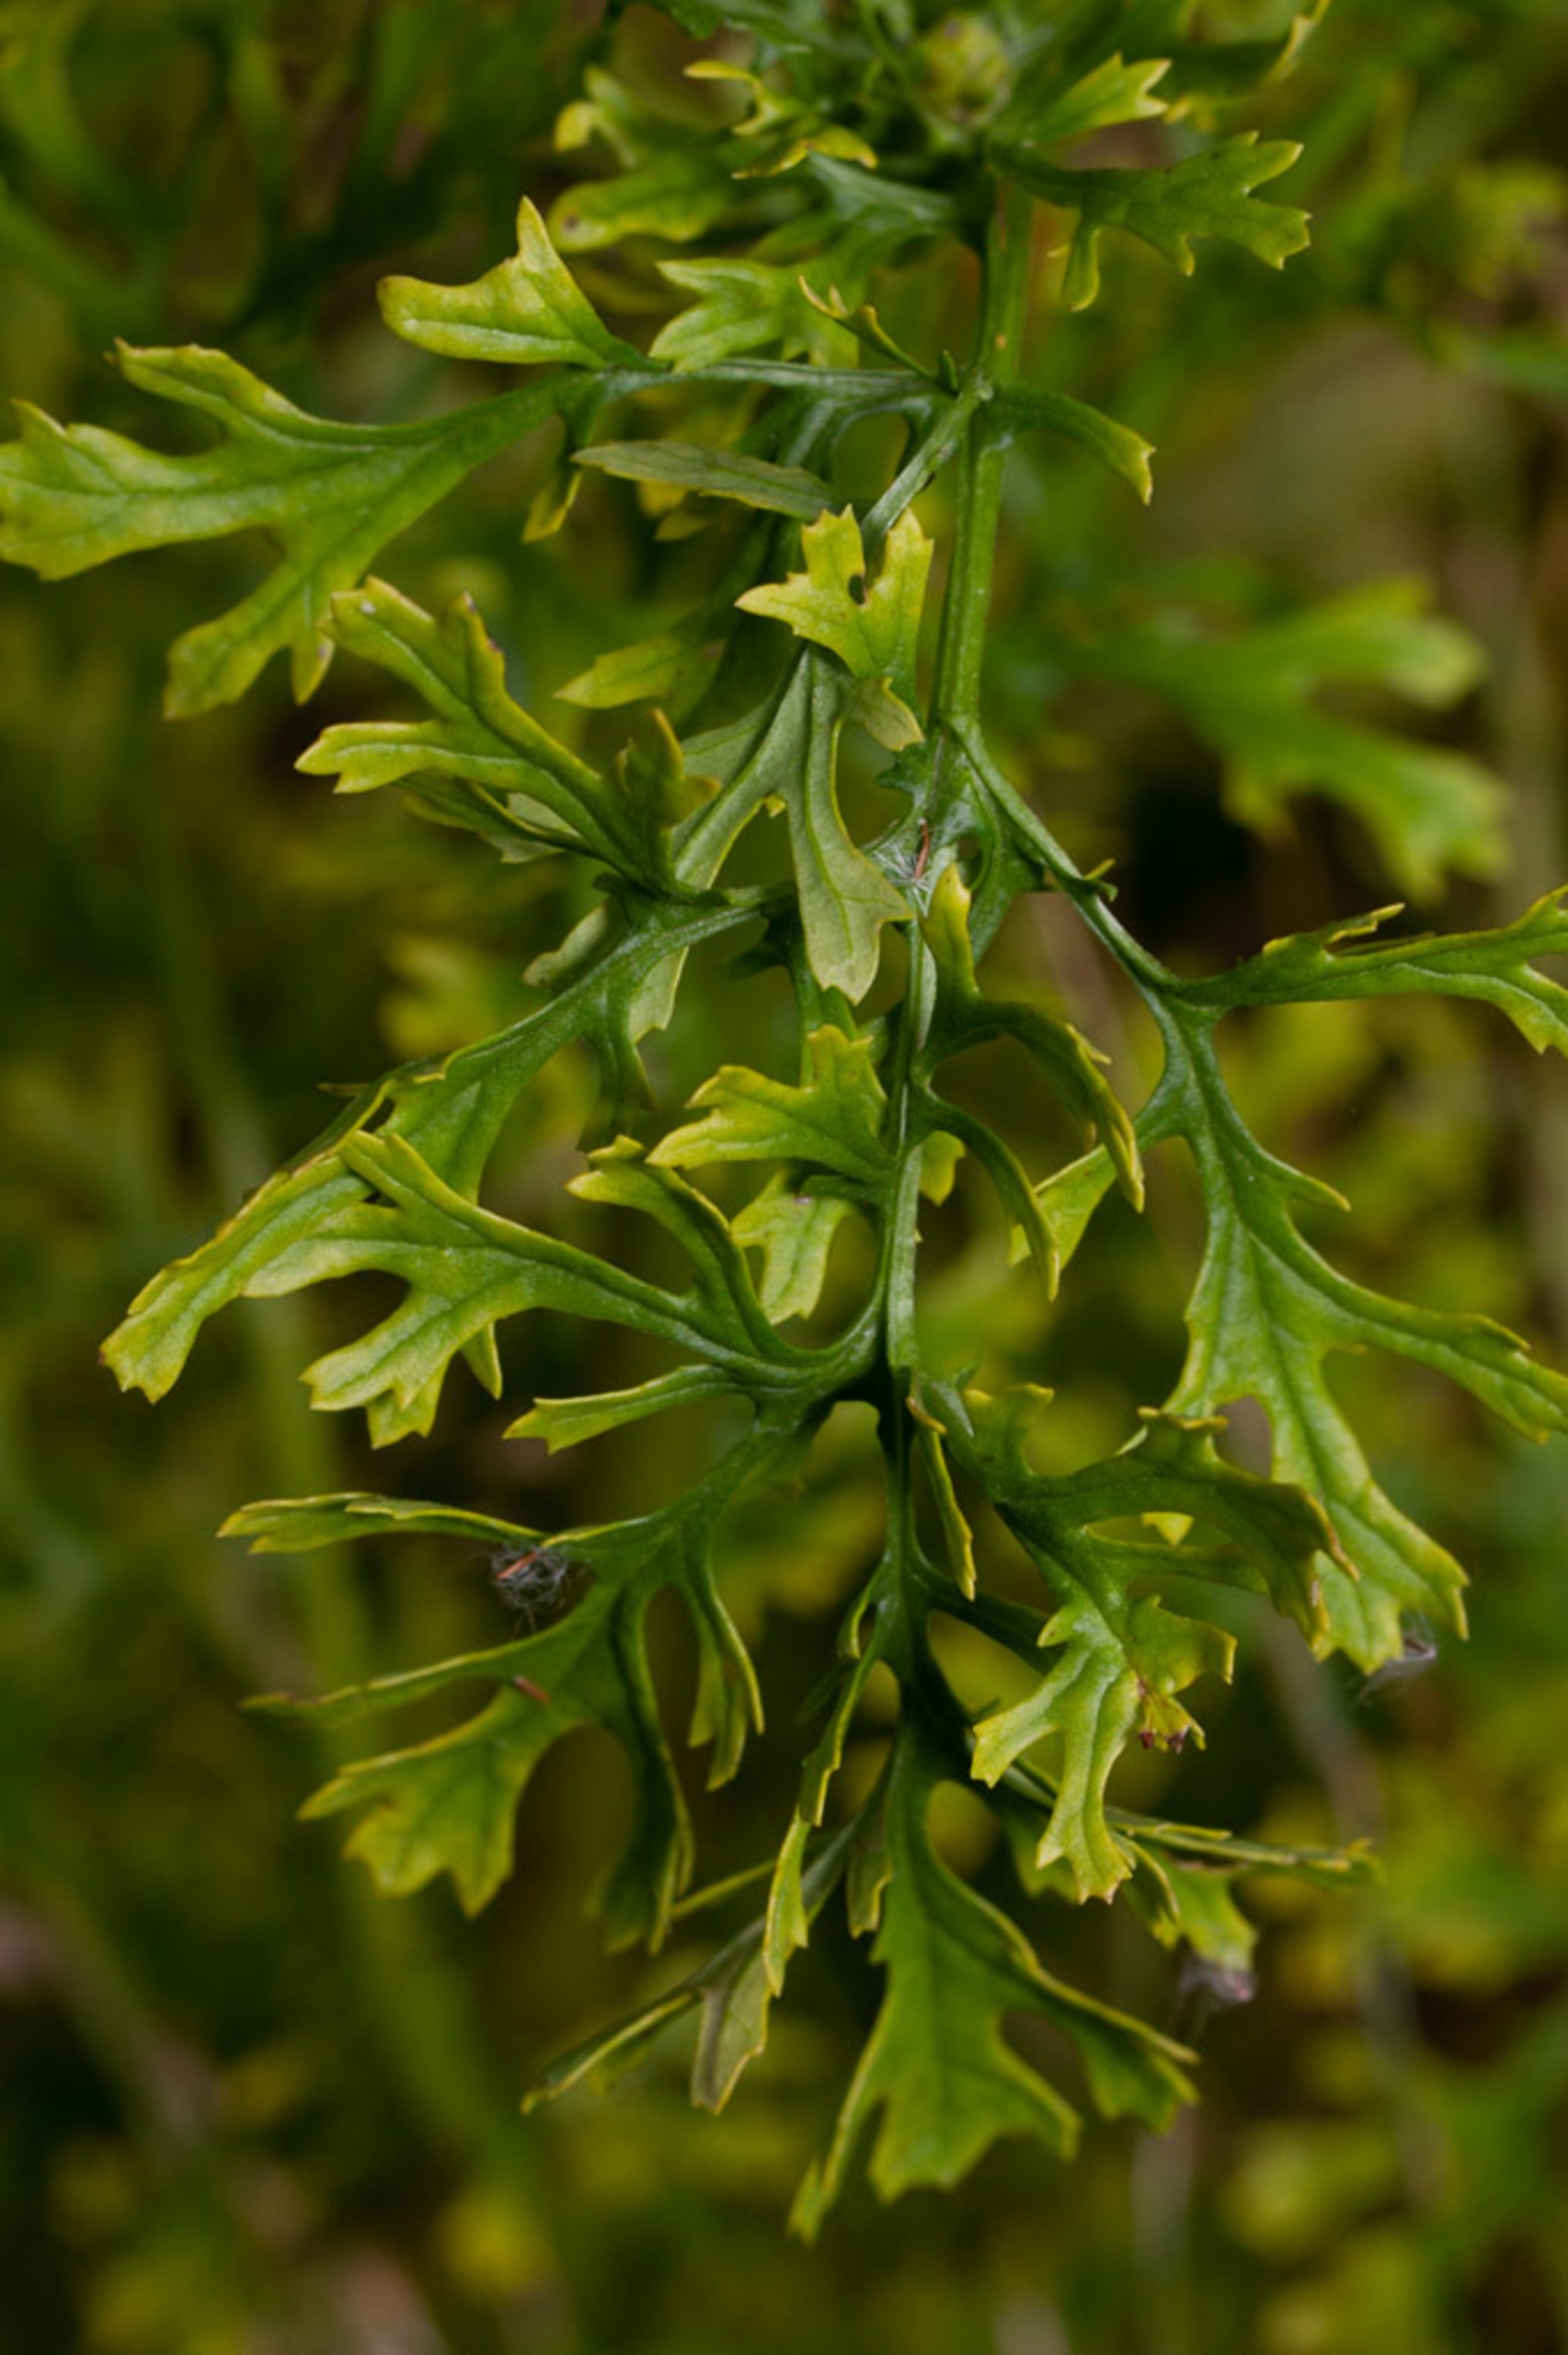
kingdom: Plantae
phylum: Tracheophyta
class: Magnoliopsida
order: Asterales
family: Asteraceae
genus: Jacobaea
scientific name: Jacobaea vulgaris
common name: Eng-brandbæger
